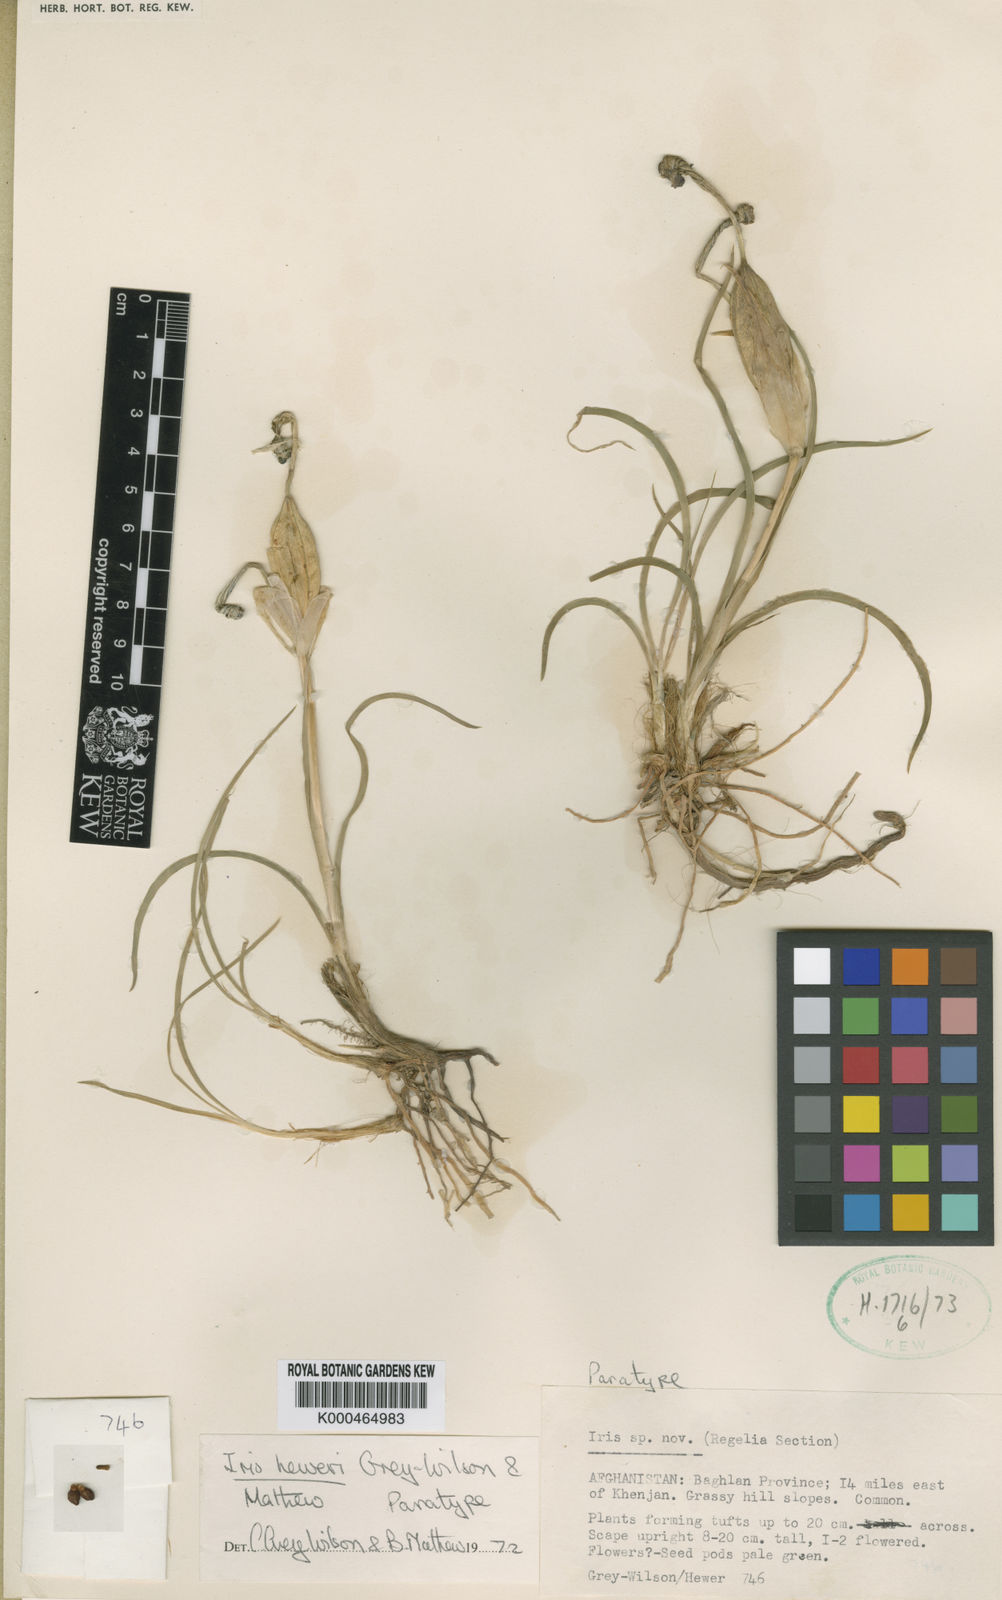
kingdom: Plantae
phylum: Tracheophyta
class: Liliopsida
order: Asparagales
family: Iridaceae
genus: Iris
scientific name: Iris heweri
